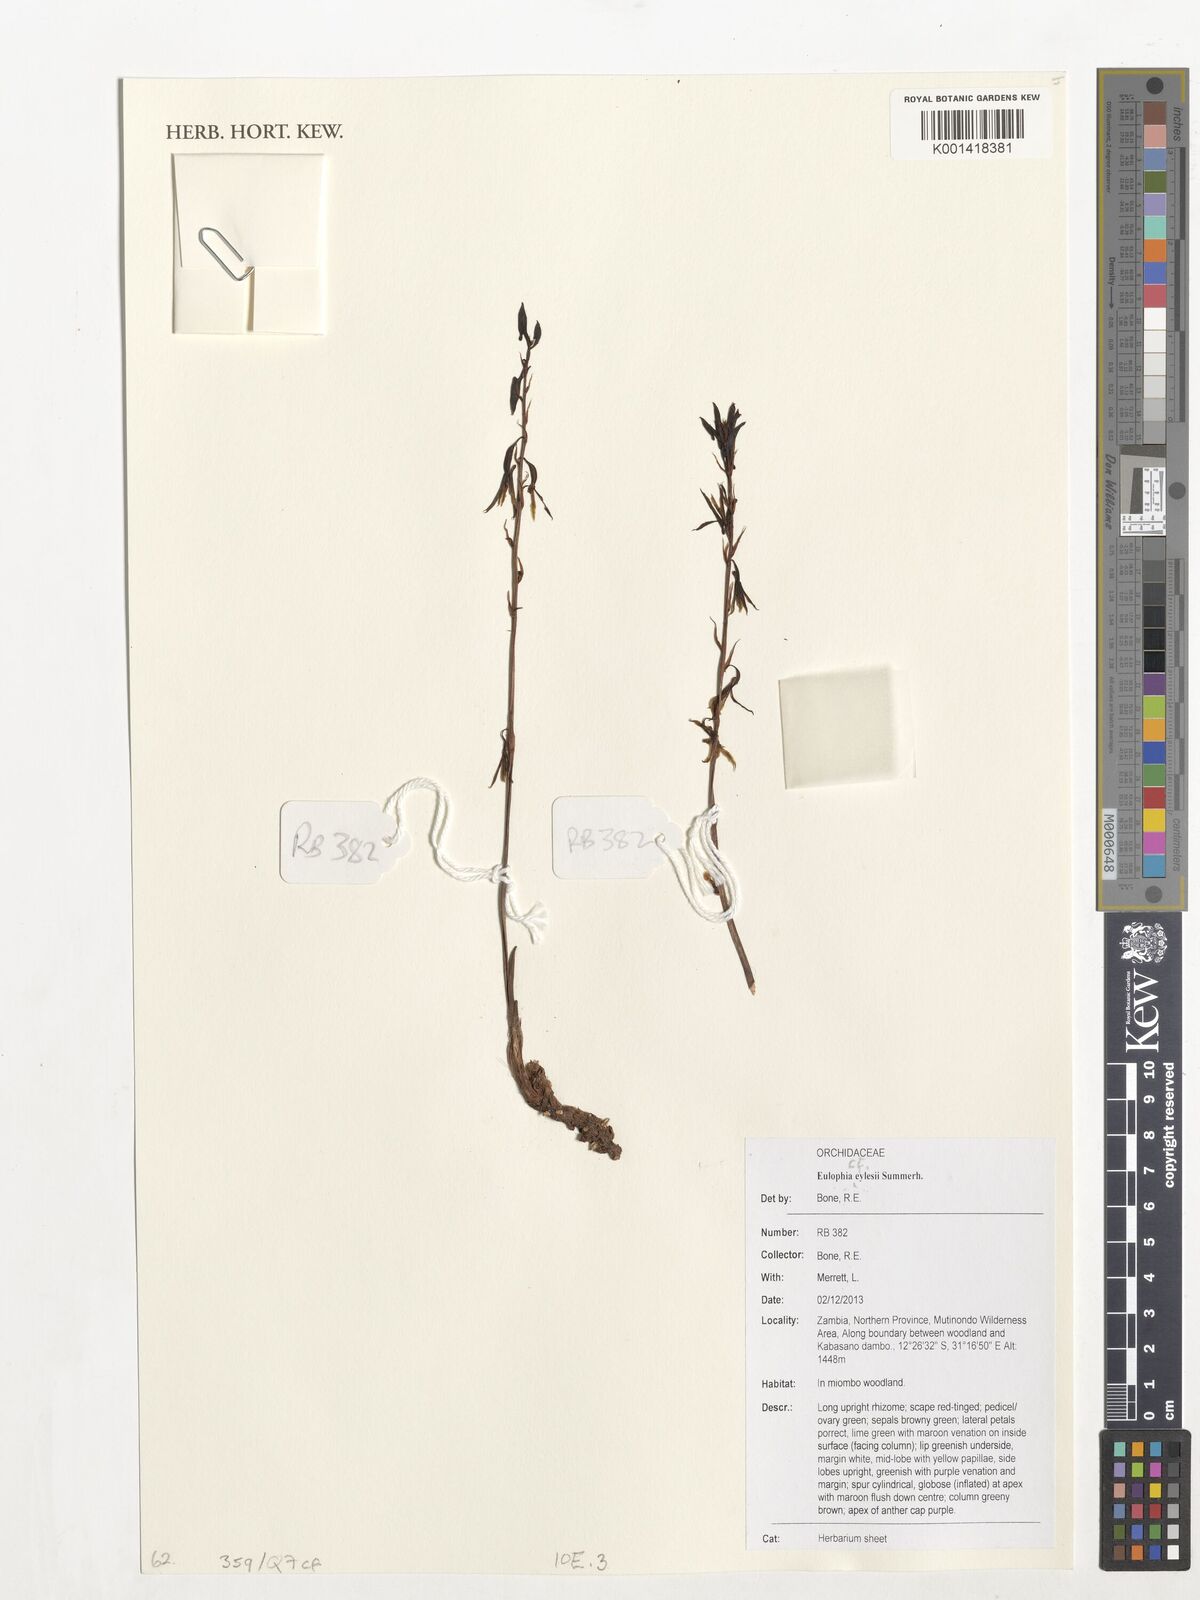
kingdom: Plantae
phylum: Tracheophyta
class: Liliopsida
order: Asparagales
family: Orchidaceae
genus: Eulophia
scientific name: Eulophia eylesii
